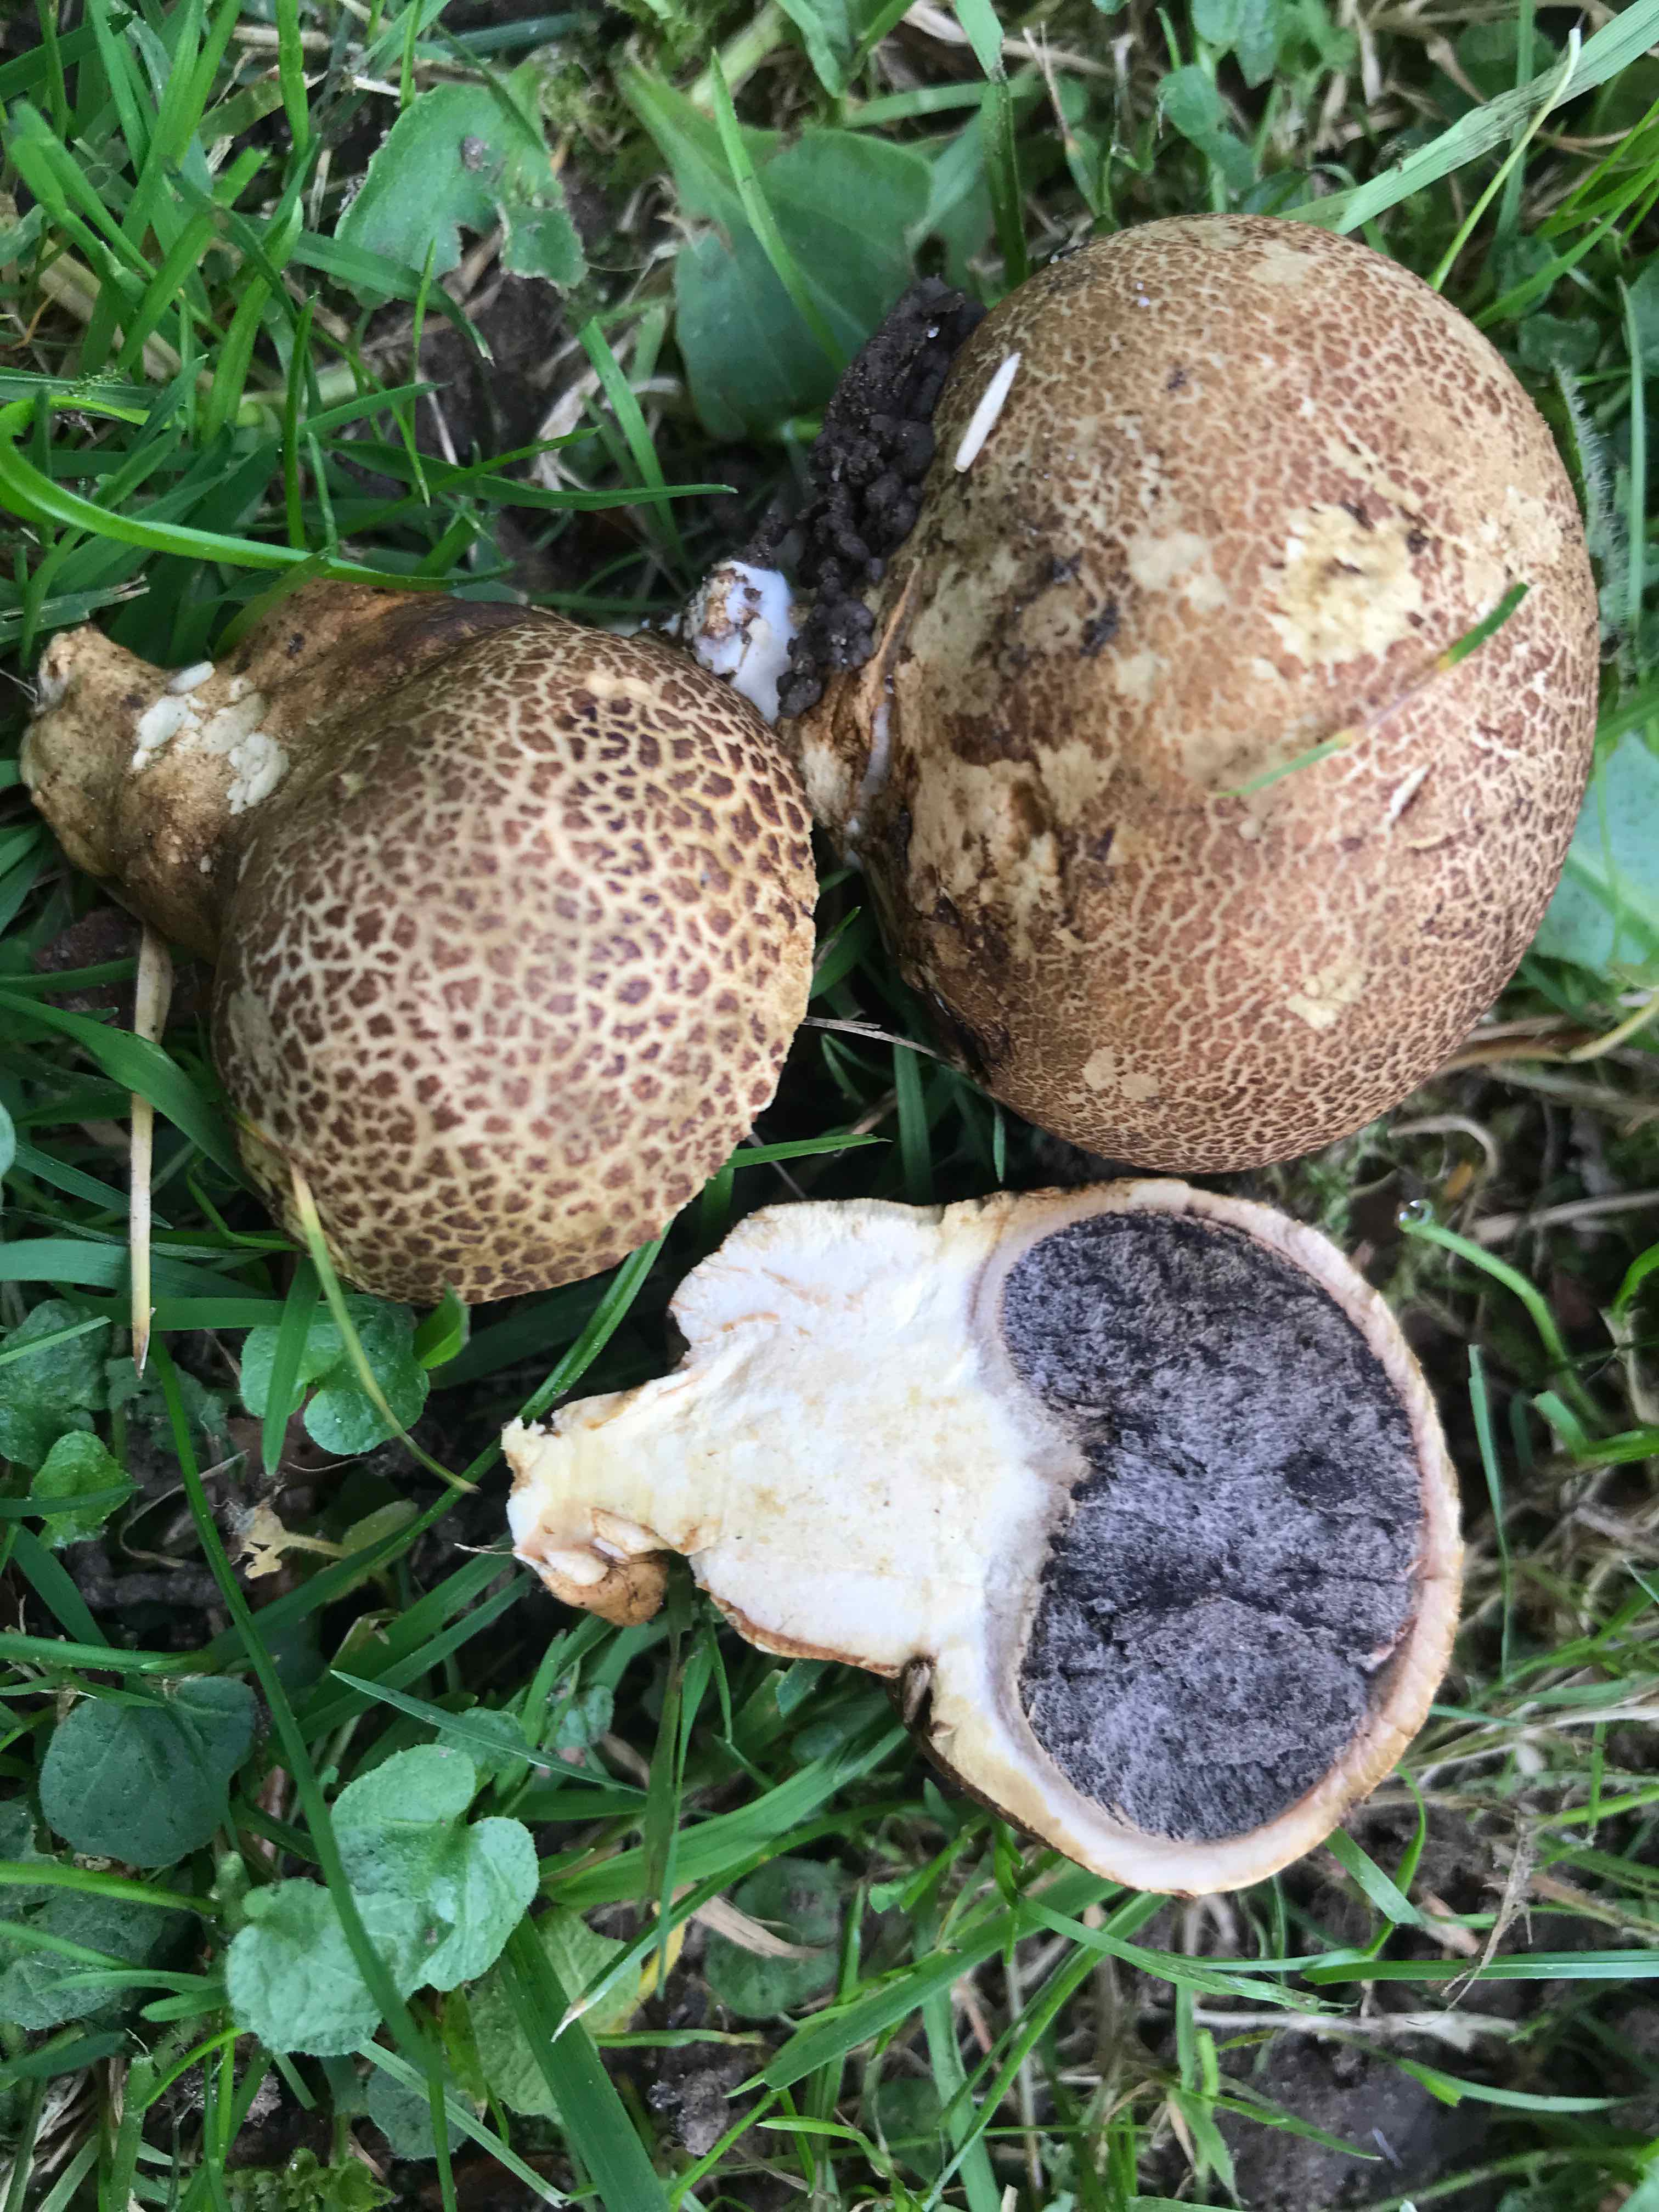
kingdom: Fungi
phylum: Basidiomycota
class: Agaricomycetes
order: Boletales
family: Sclerodermataceae
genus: Scleroderma
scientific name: Scleroderma
